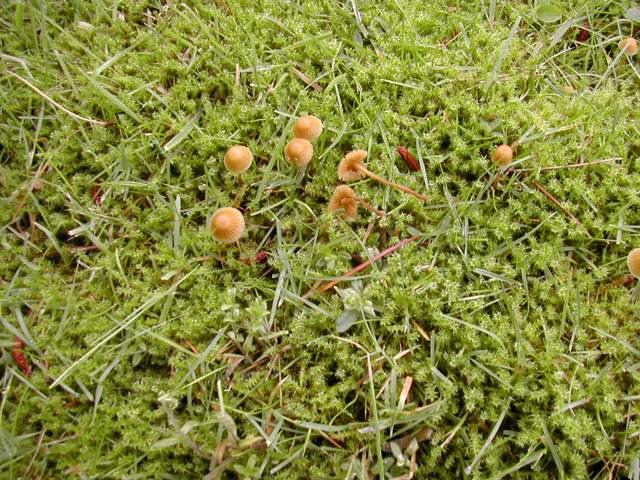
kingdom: Fungi
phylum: Basidiomycota
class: Agaricomycetes
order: Agaricales
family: Hymenogastraceae
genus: Galerina
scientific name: Galerina atkinsoniana
